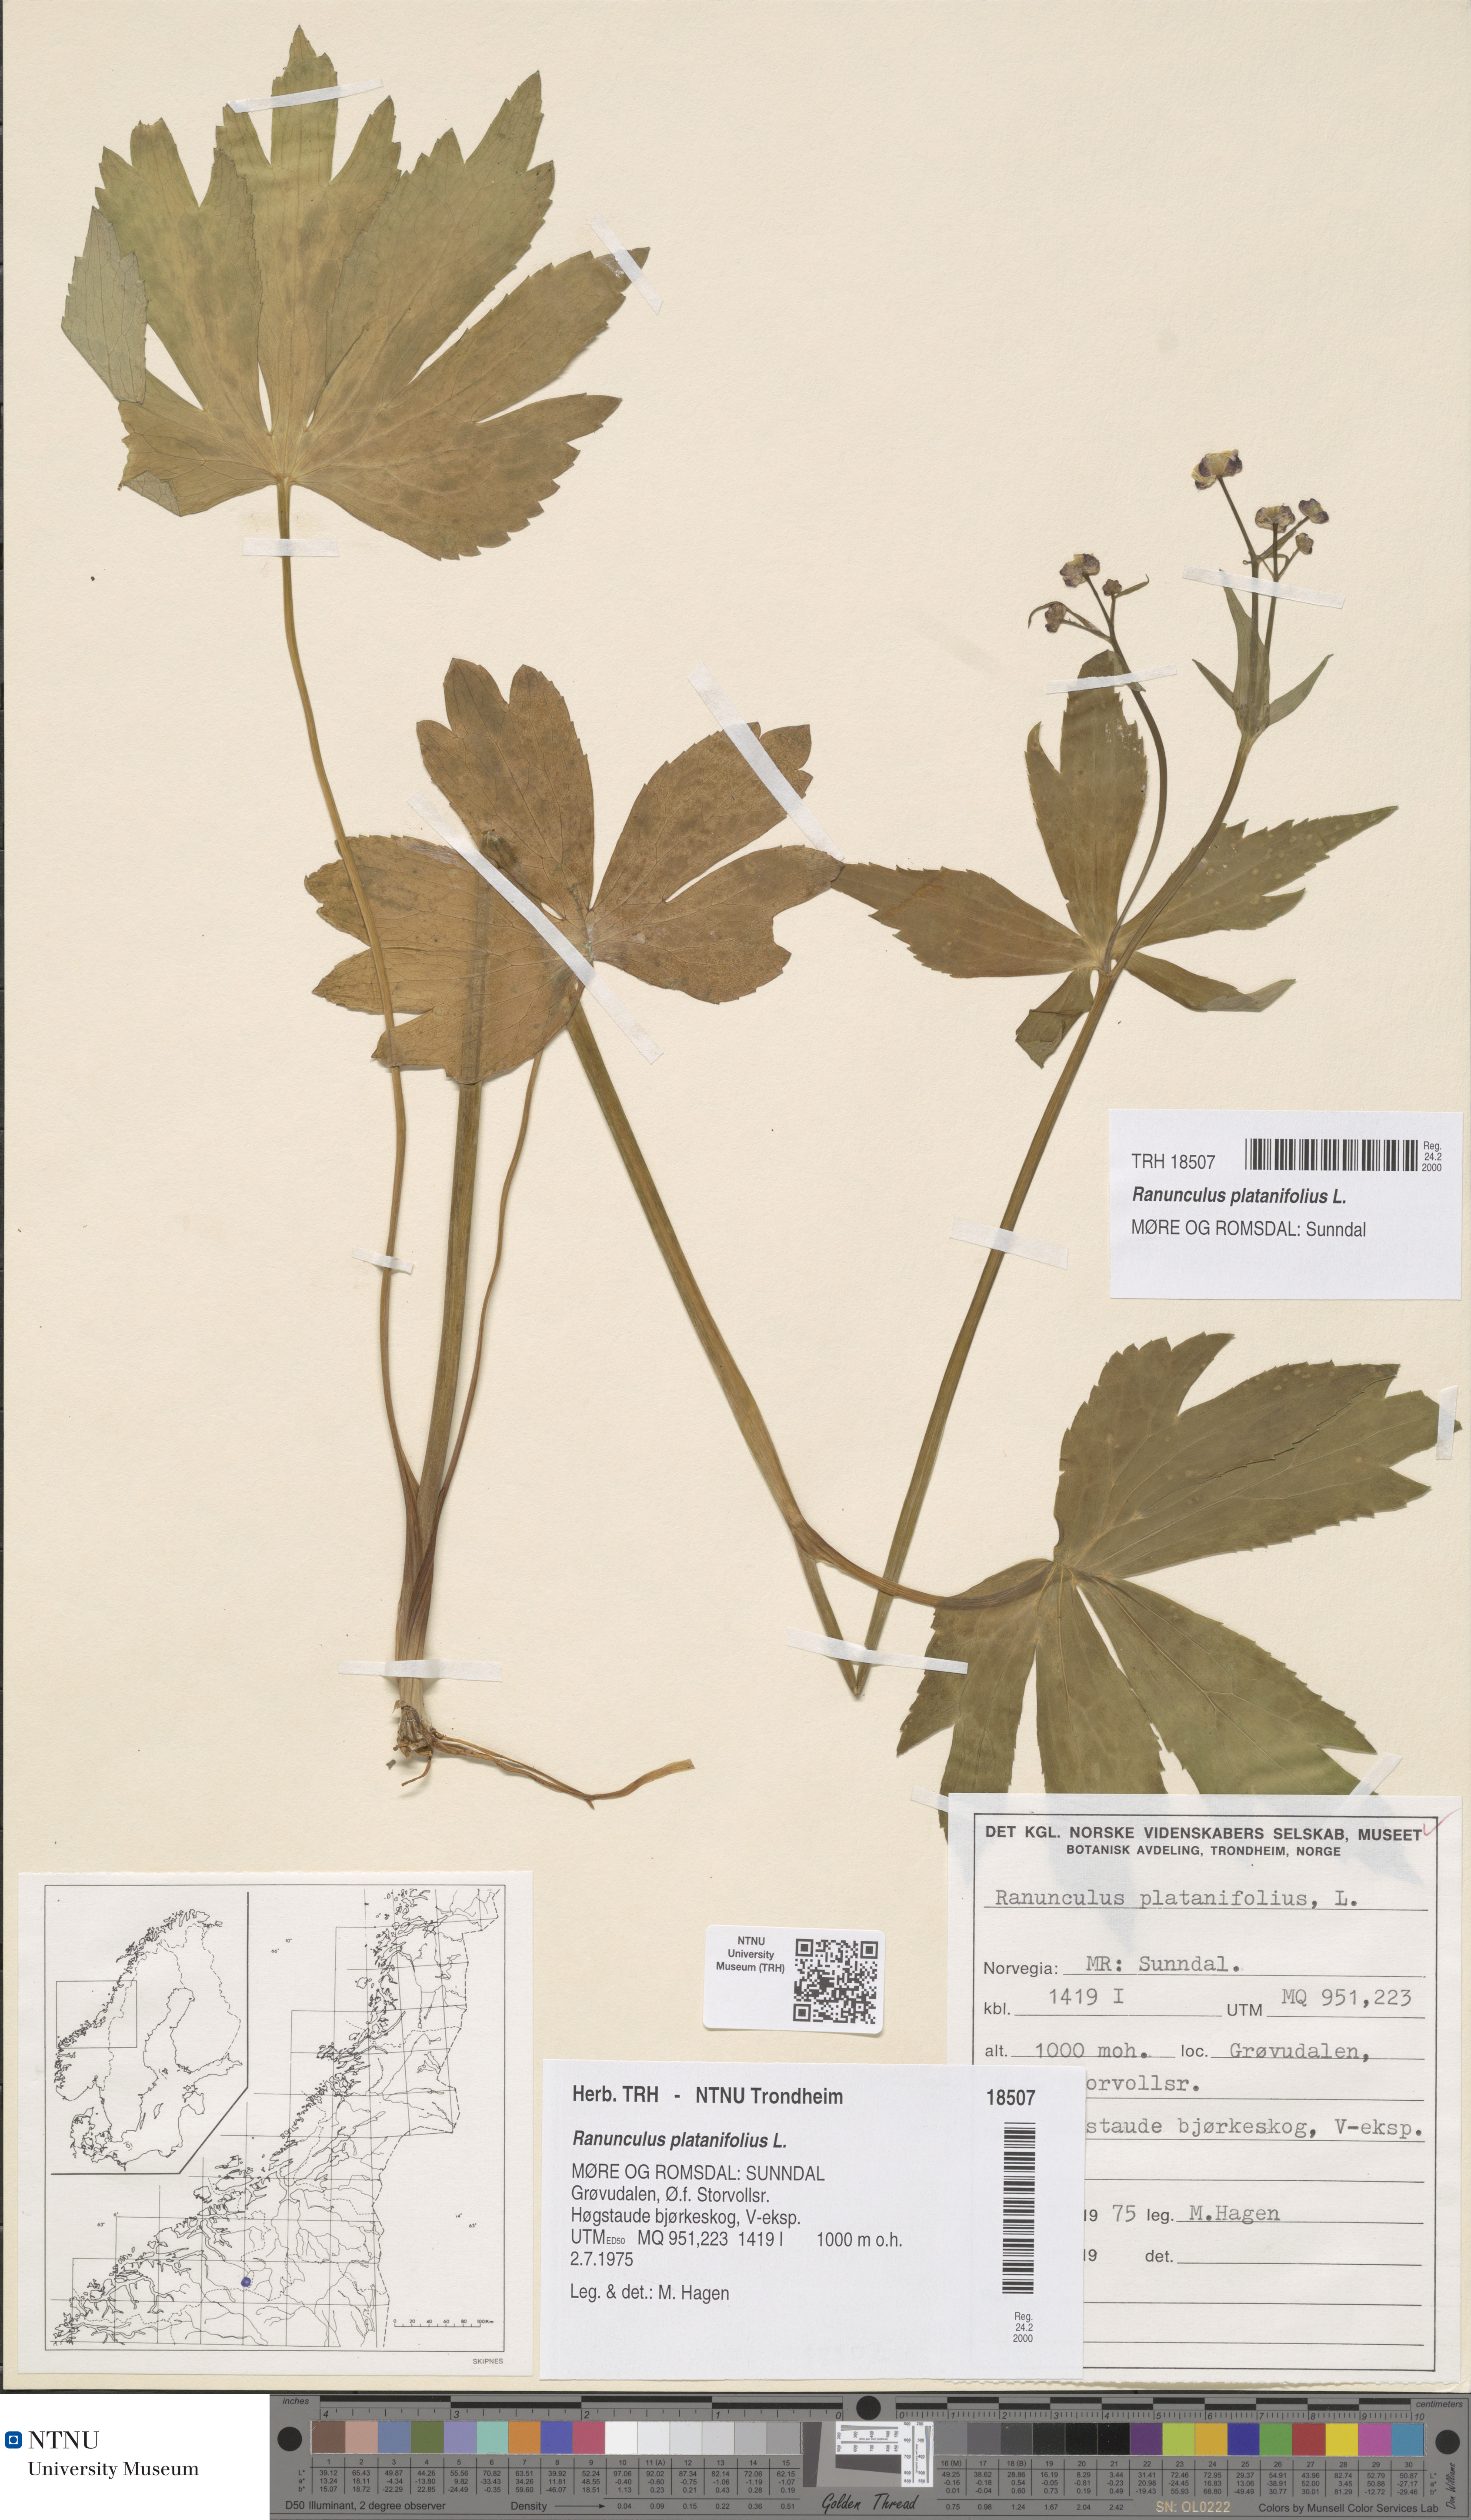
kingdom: Plantae
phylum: Tracheophyta
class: Magnoliopsida
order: Ranunculales
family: Ranunculaceae
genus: Ranunculus
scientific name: Ranunculus platanifolius
